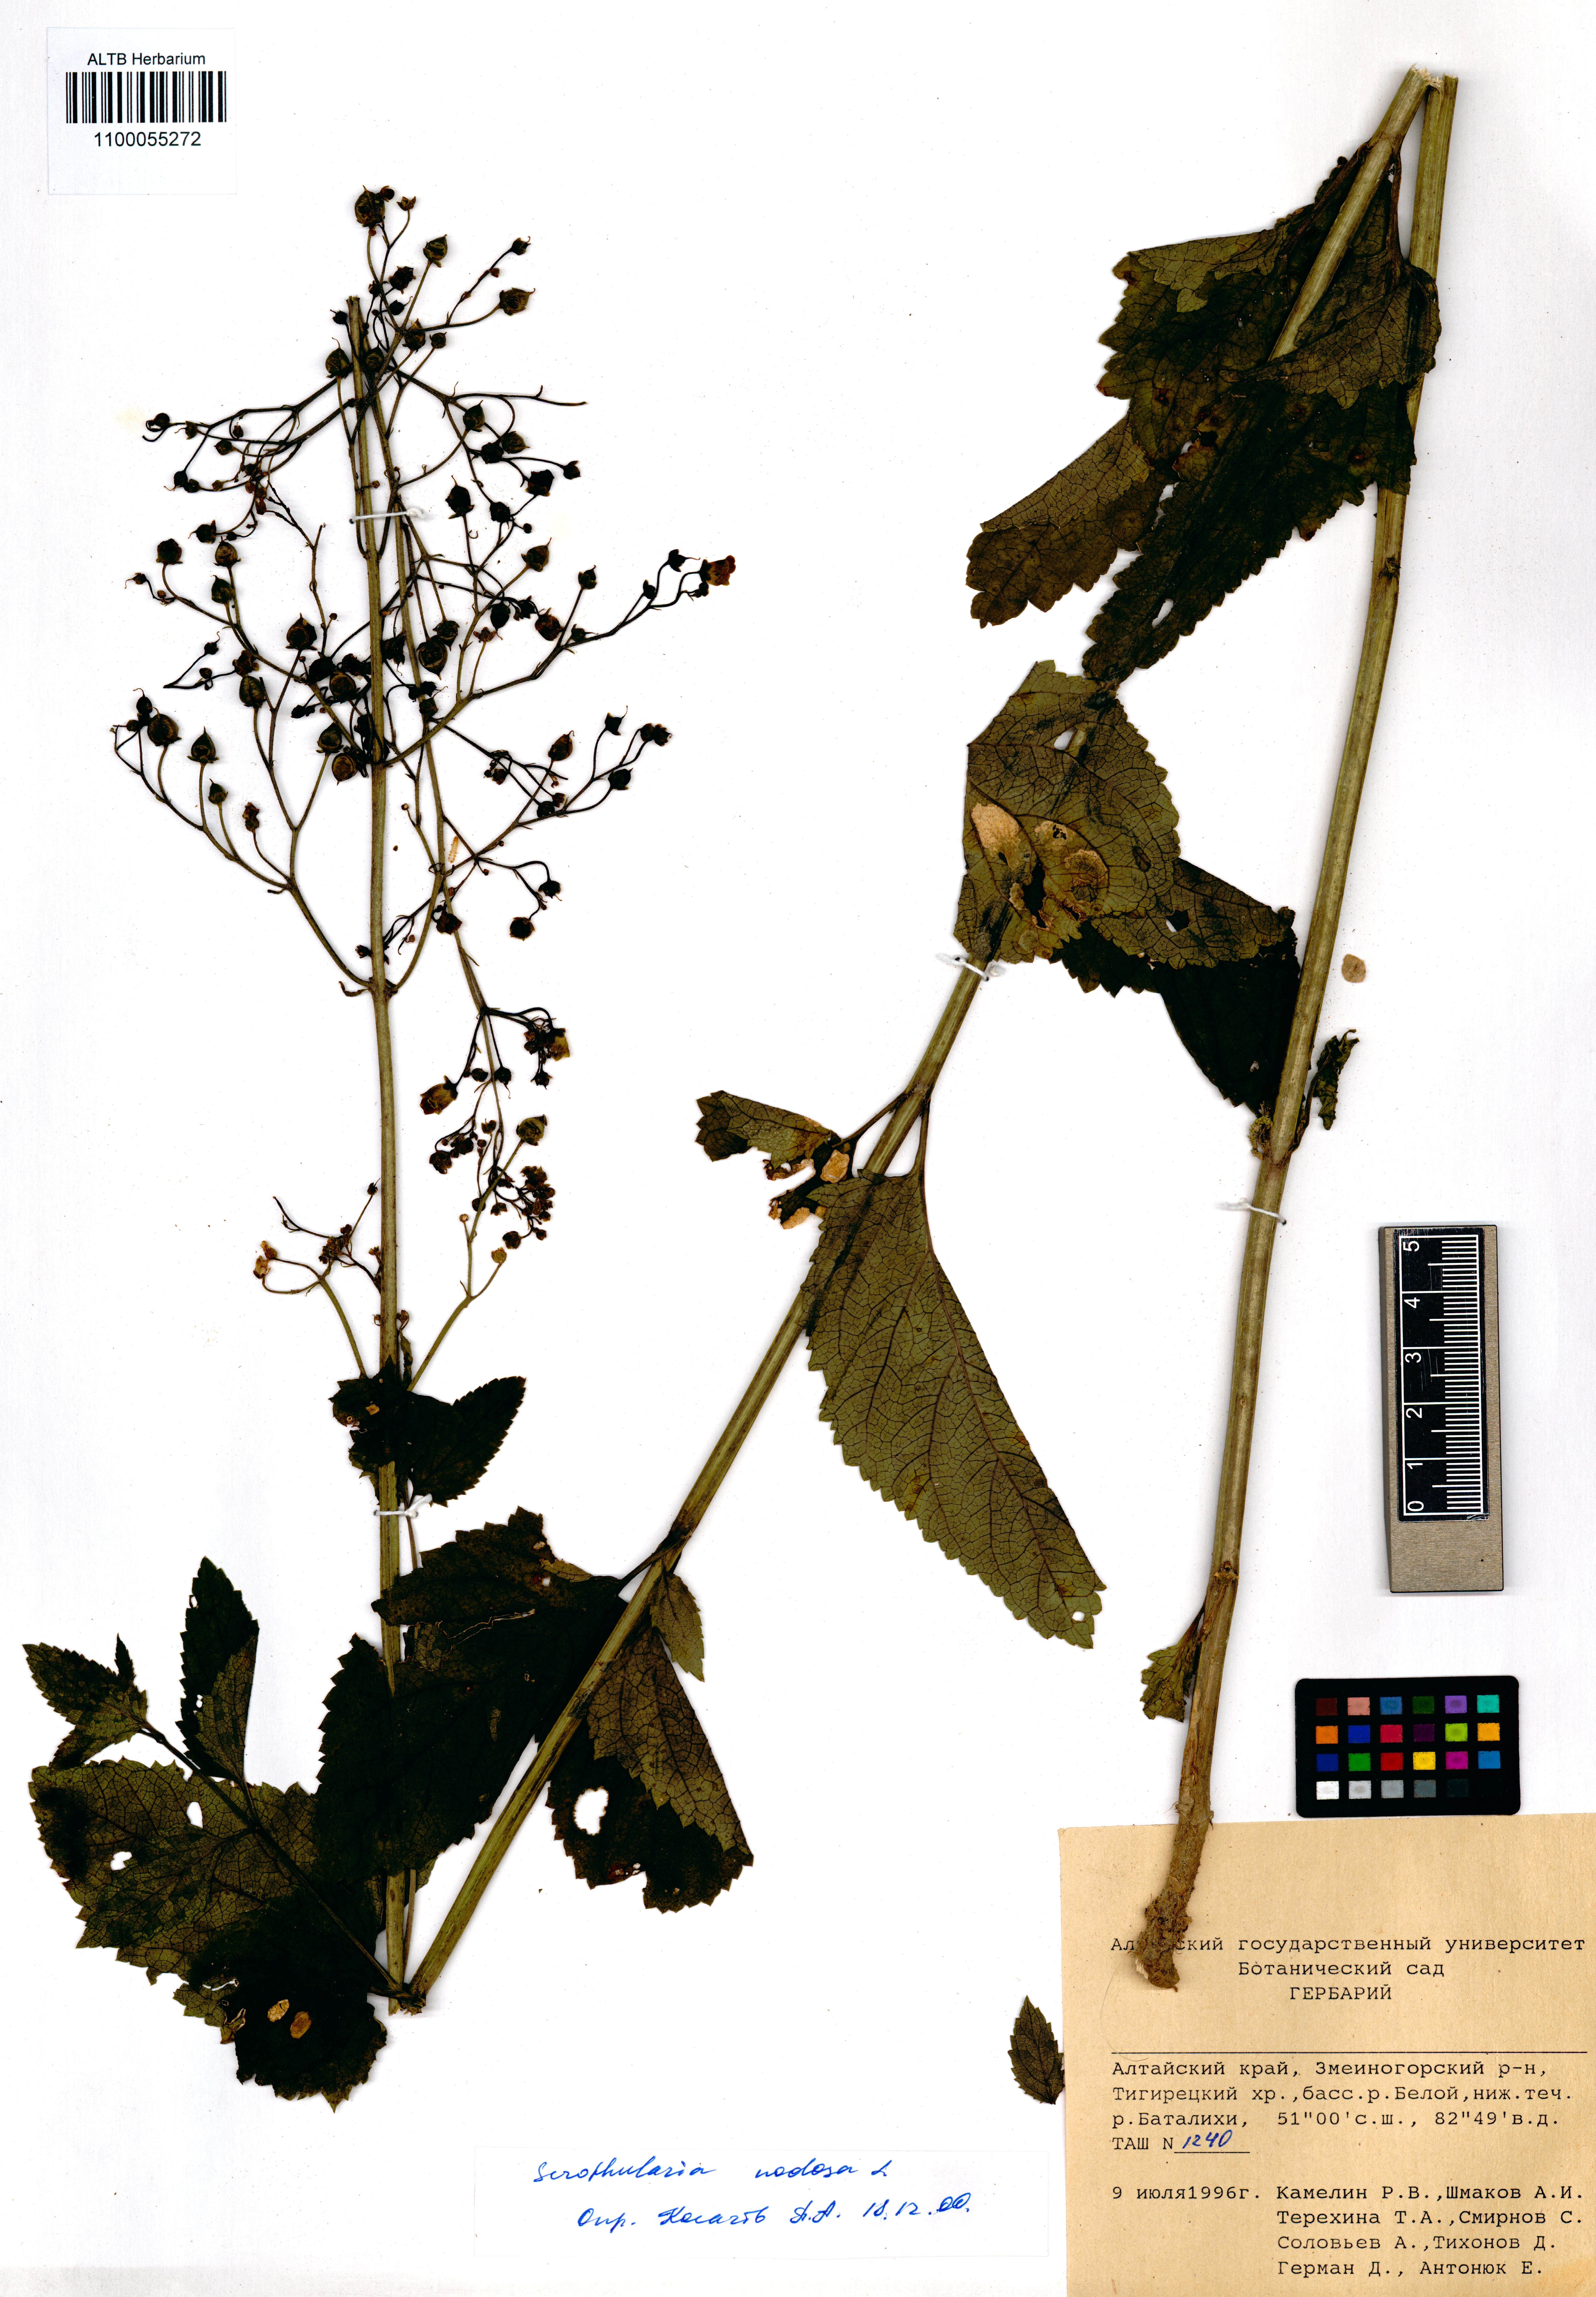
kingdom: Plantae
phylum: Tracheophyta
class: Magnoliopsida
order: Lamiales
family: Scrophulariaceae
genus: Scrophularia
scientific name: Scrophularia nodosa
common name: Common figwort
